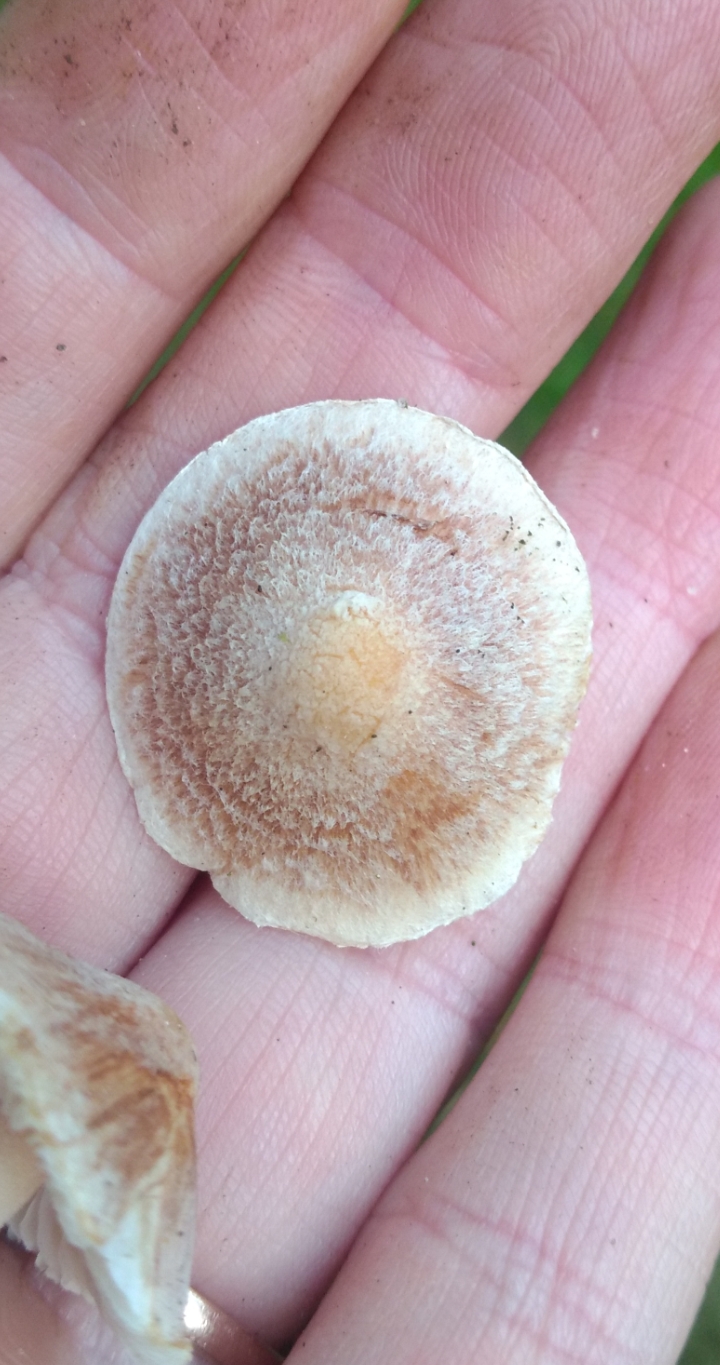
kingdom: Fungi
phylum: Basidiomycota
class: Agaricomycetes
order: Agaricales
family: Inocybaceae
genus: Inocybe
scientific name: Inocybe
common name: trævlhat
